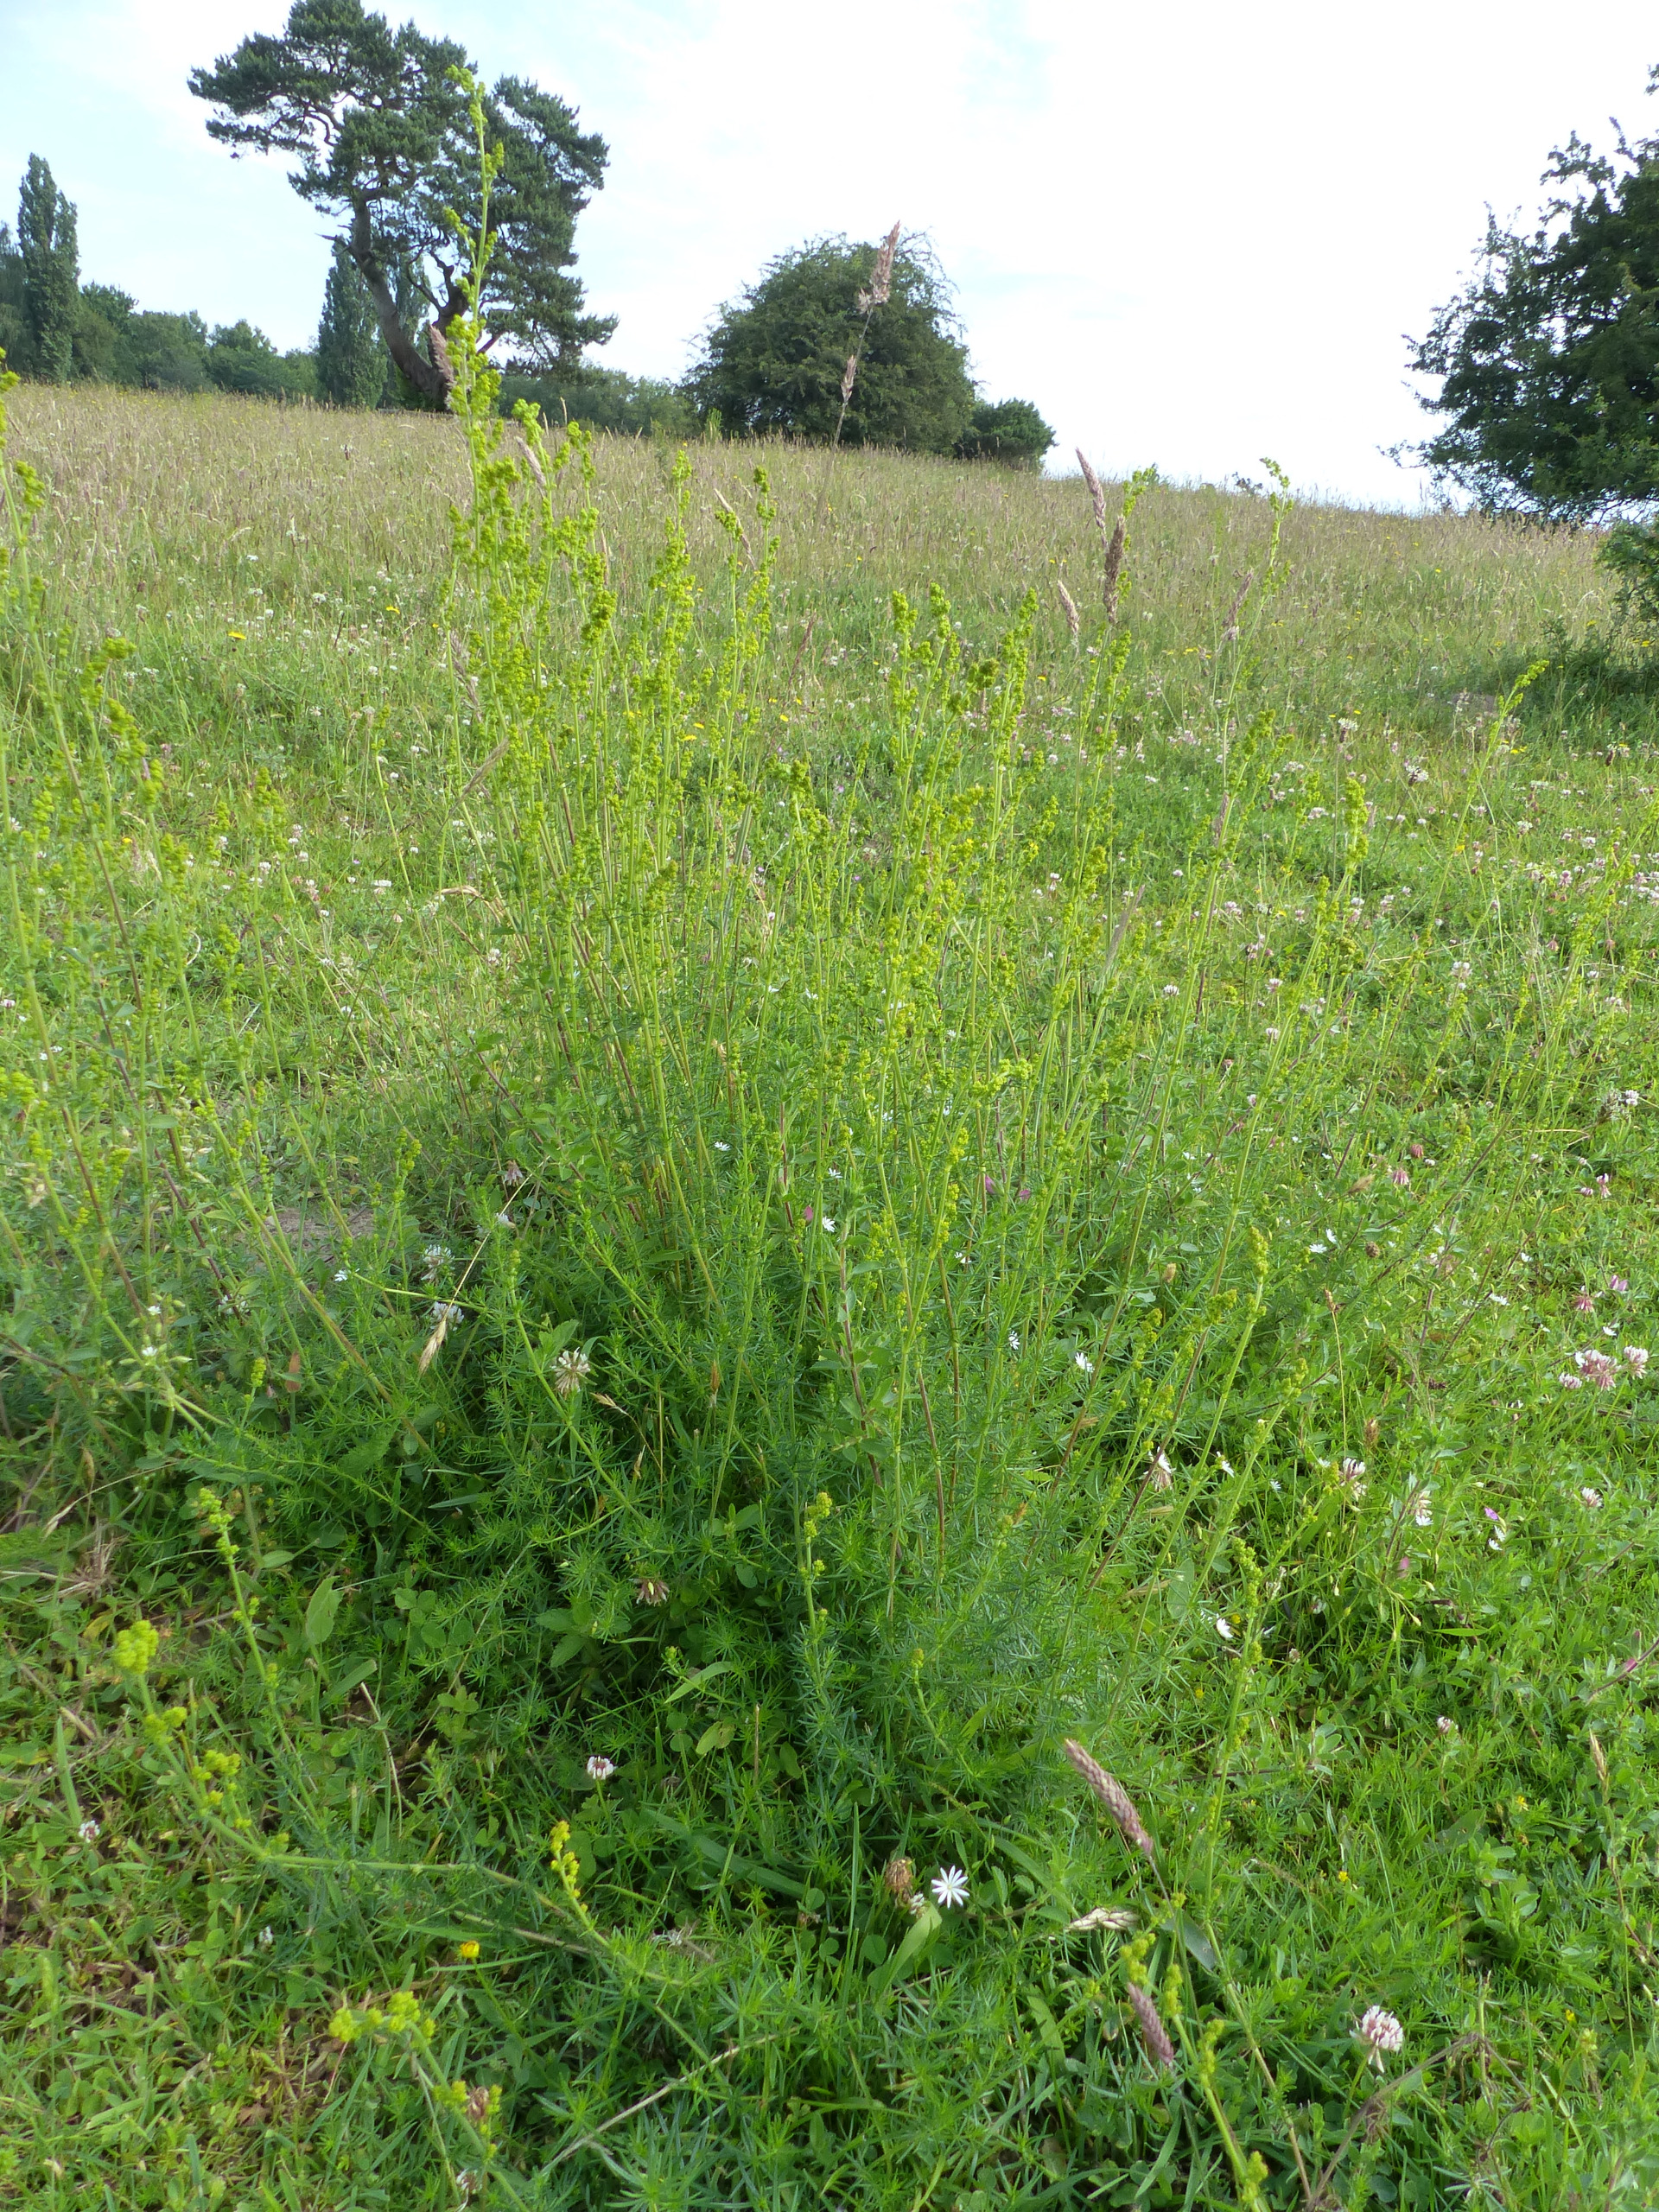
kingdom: Plantae
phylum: Tracheophyta
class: Magnoliopsida
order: Gentianales
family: Rubiaceae
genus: Galium
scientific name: Galium verum
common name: Gul snerre
